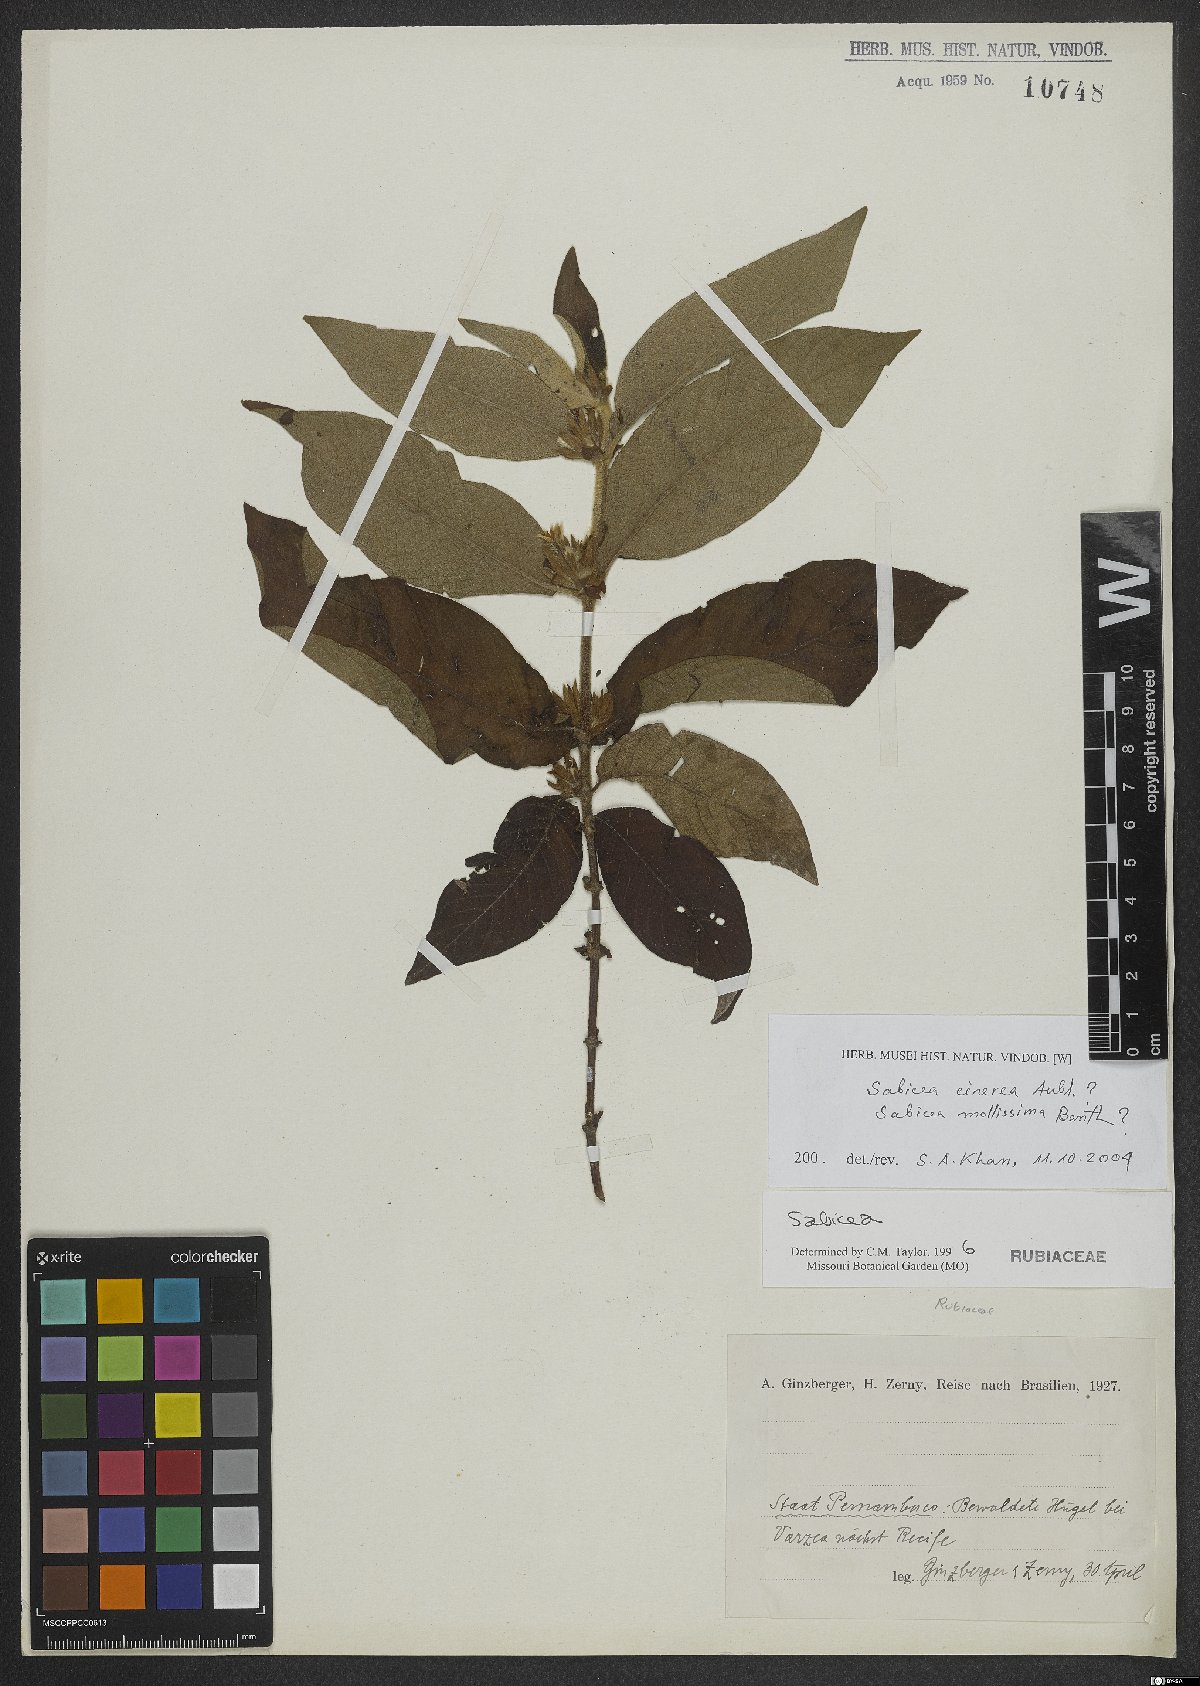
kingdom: Plantae
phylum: Tracheophyta
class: Magnoliopsida
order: Gentianales
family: Rubiaceae
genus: Sabicea
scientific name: Sabicea cinerea
